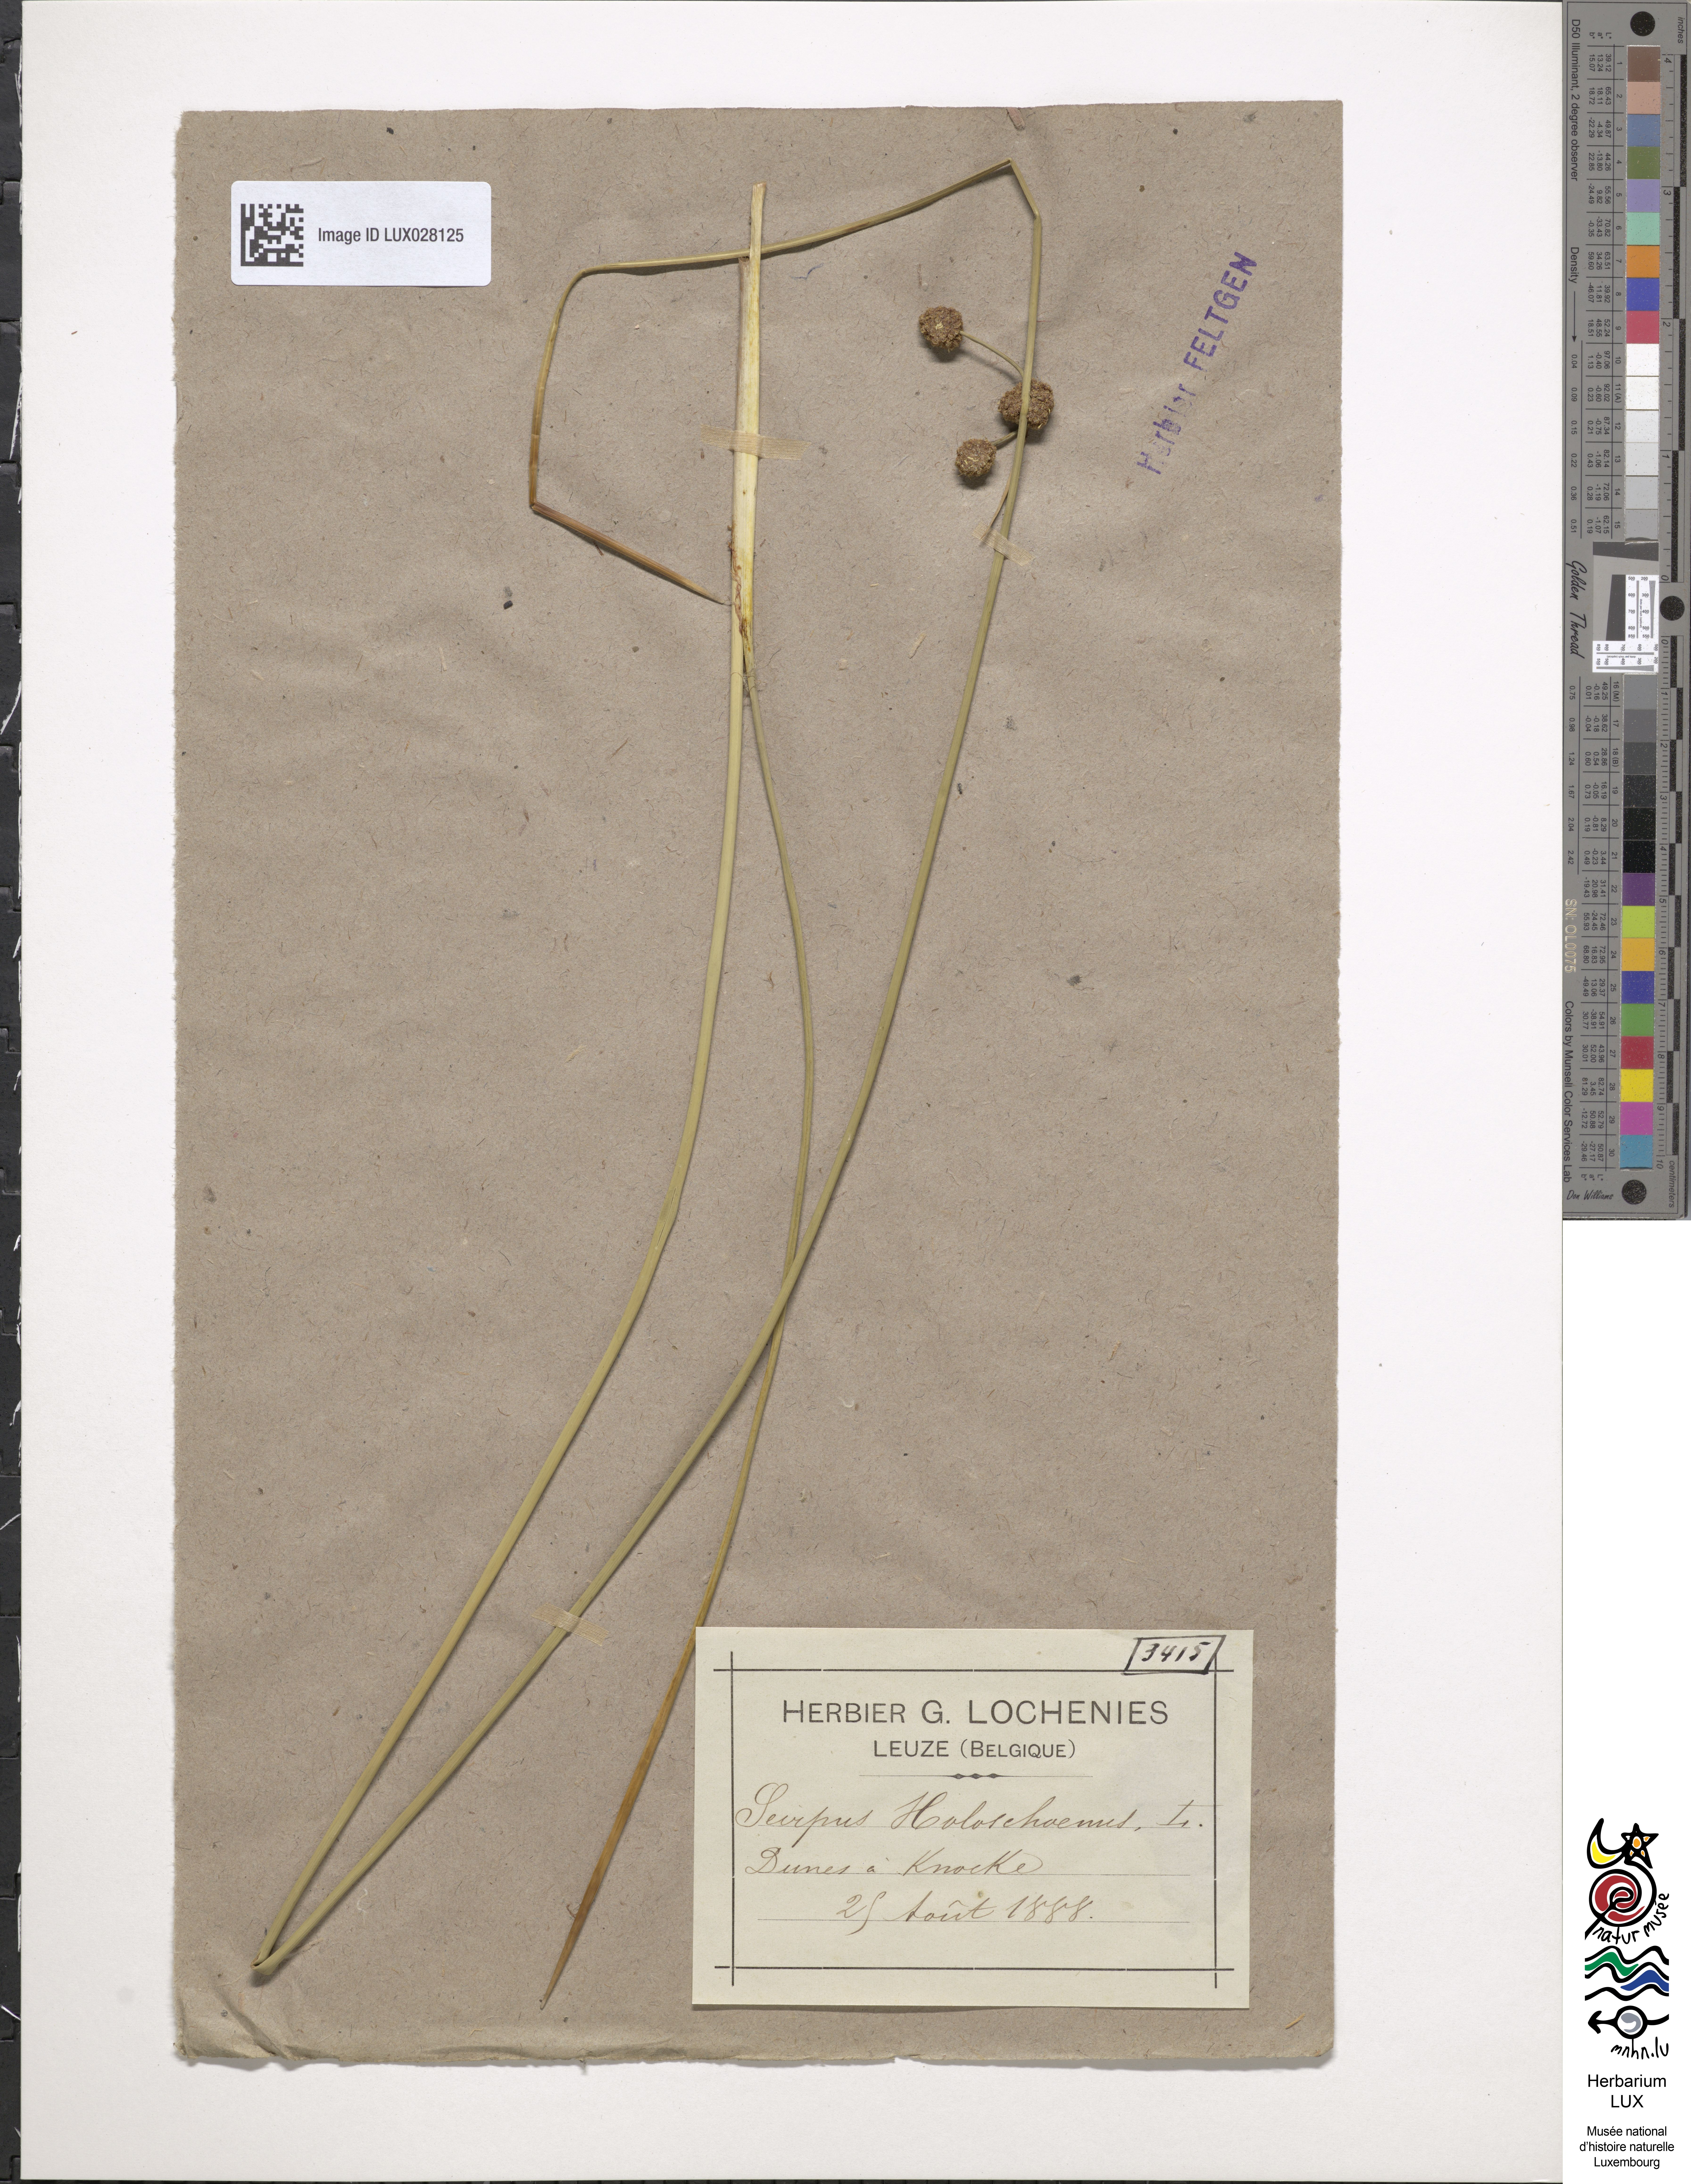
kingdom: Plantae
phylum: Tracheophyta
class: Liliopsida
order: Poales
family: Cyperaceae
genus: Scirpoides
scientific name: Scirpoides holoschoenus
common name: Round-headed club-rush
